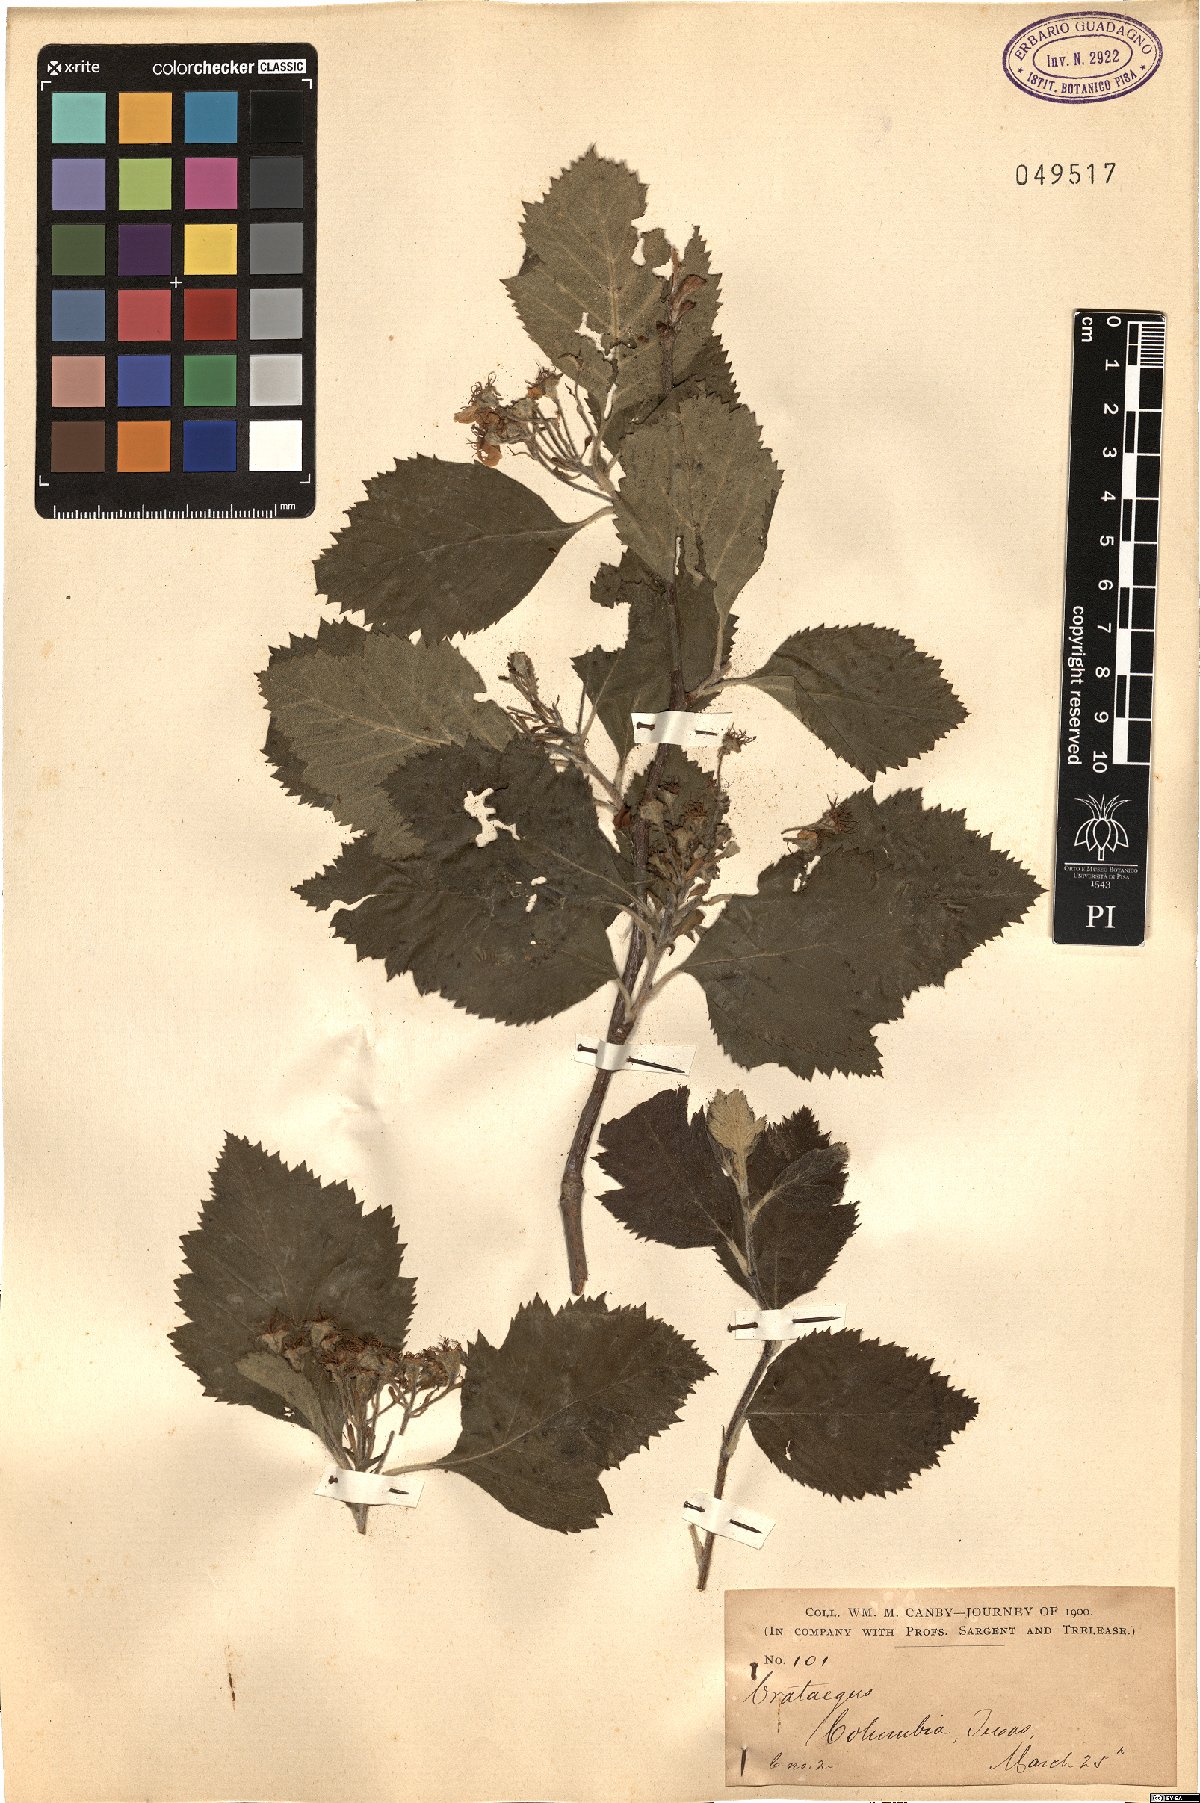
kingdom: Plantae
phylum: Tracheophyta
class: Magnoliopsida
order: Rosales
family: Rosaceae
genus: Crataegus
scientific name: Crataegus
